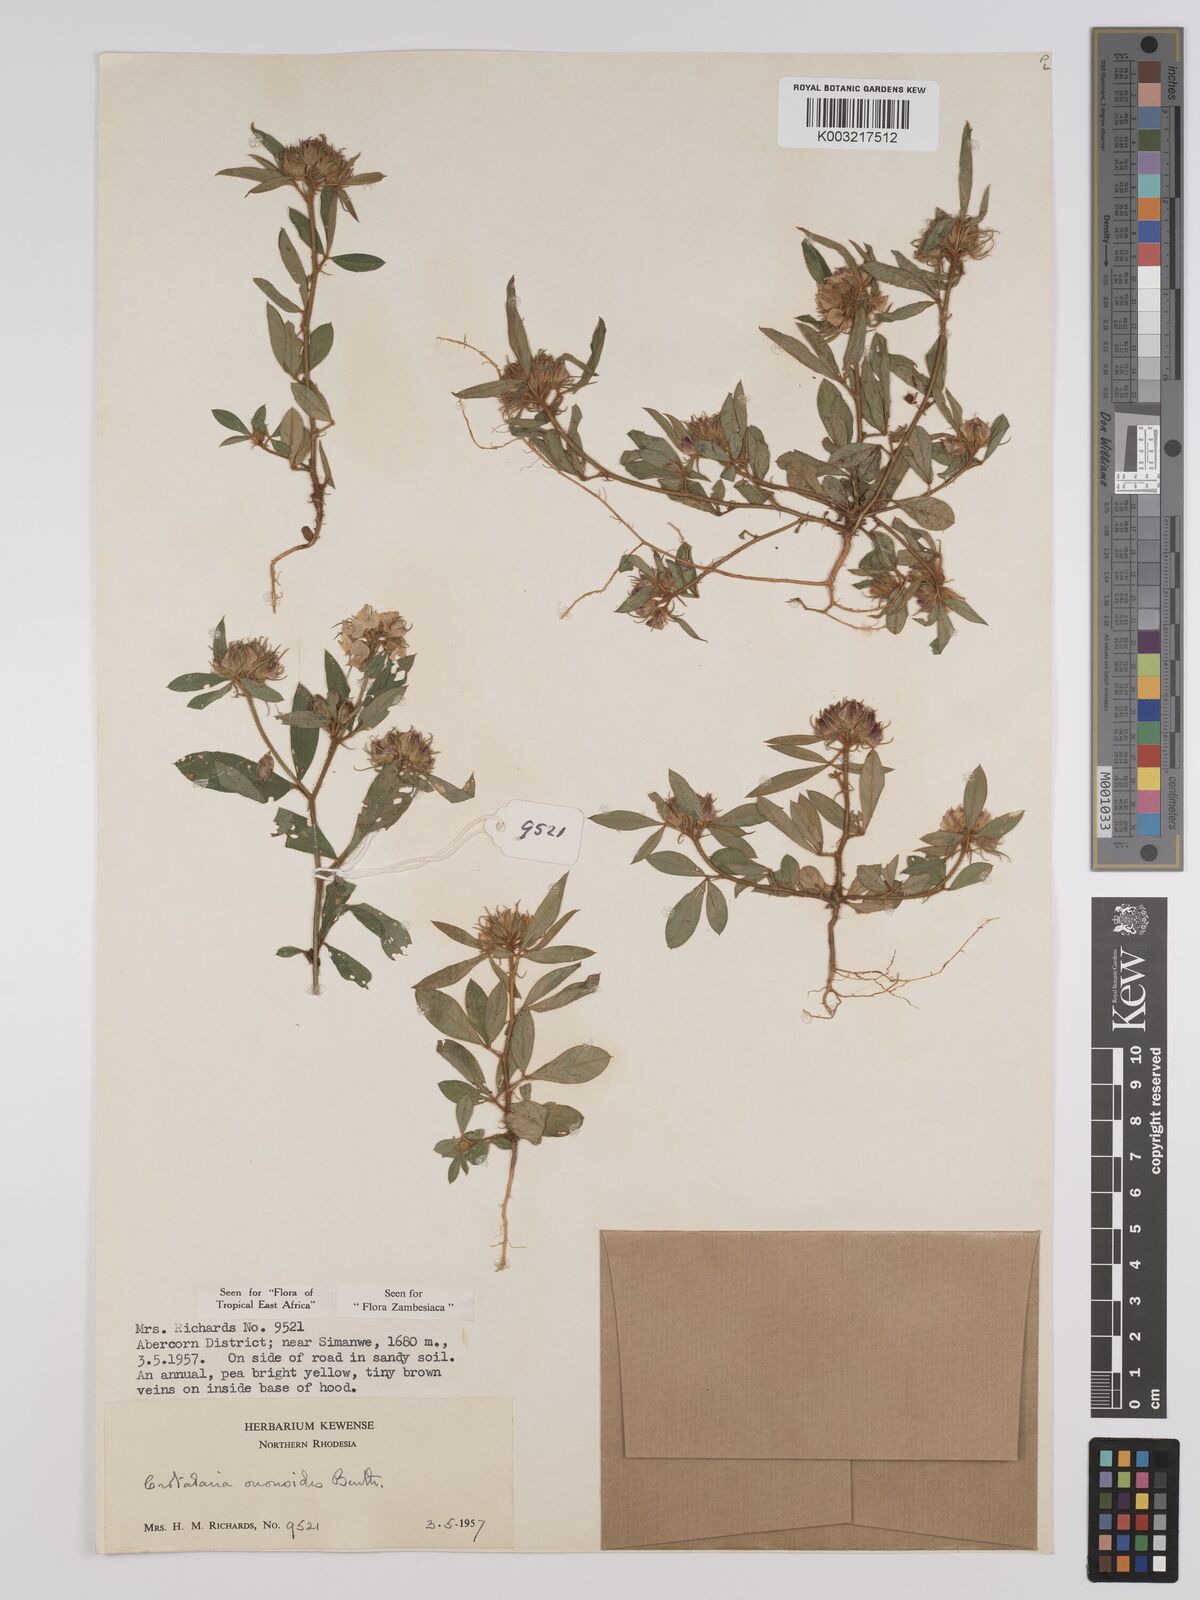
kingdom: Plantae
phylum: Tracheophyta
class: Magnoliopsida
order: Fabales
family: Fabaceae
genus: Crotalaria
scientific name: Crotalaria ononoides
